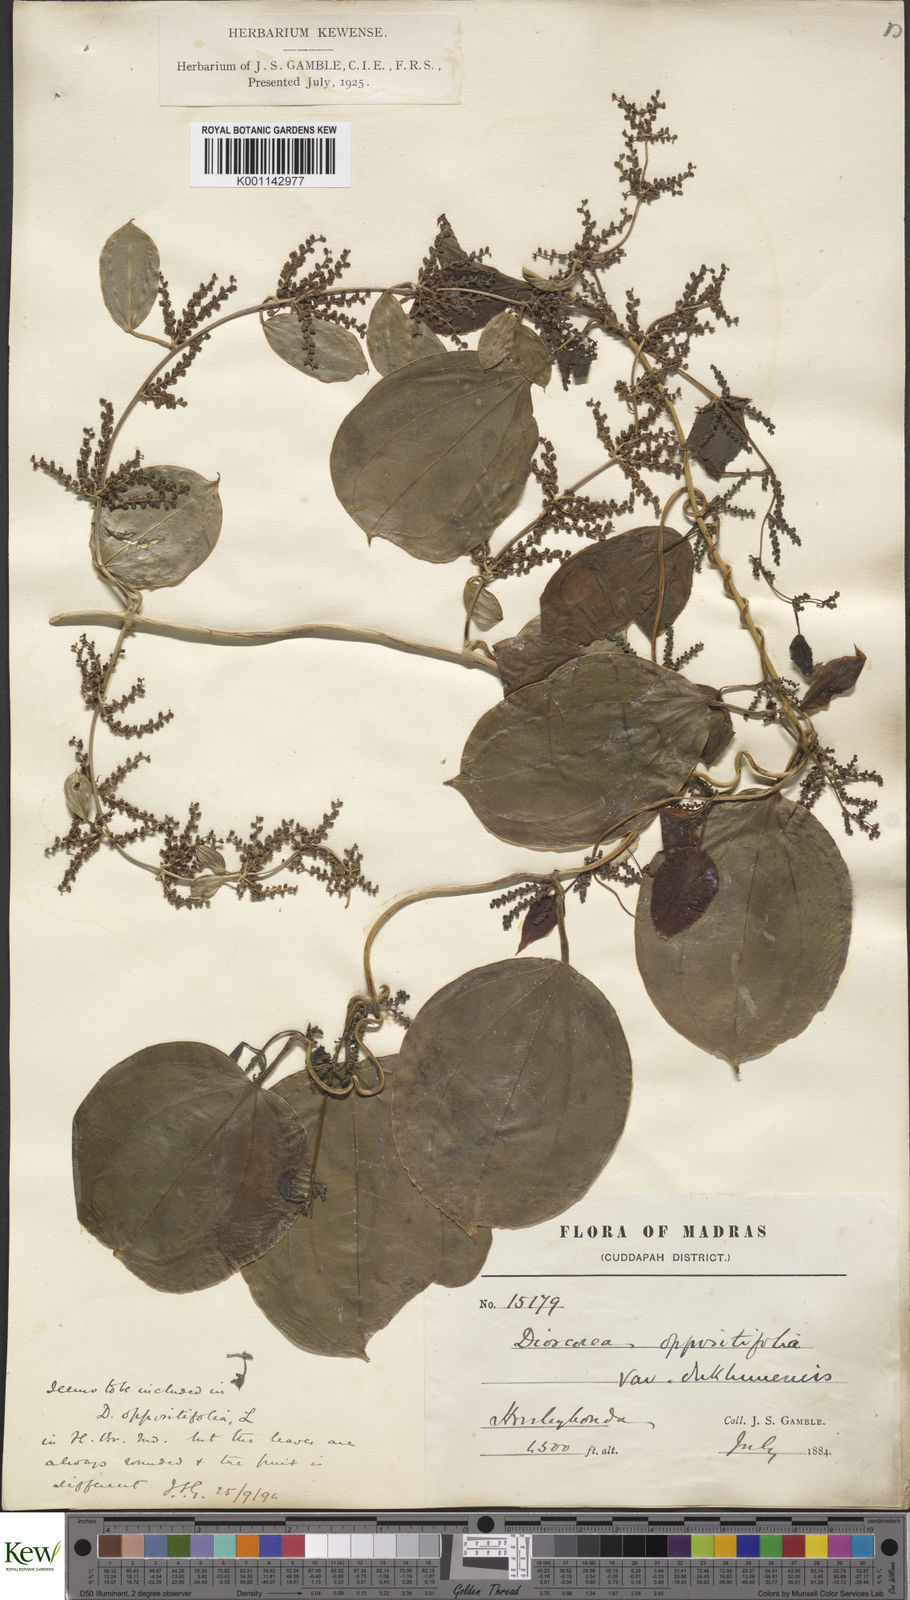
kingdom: Plantae
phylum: Tracheophyta
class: Liliopsida
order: Dioscoreales
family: Dioscoreaceae
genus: Dioscorea
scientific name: Dioscorea oppositifolia
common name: Chinese yam
